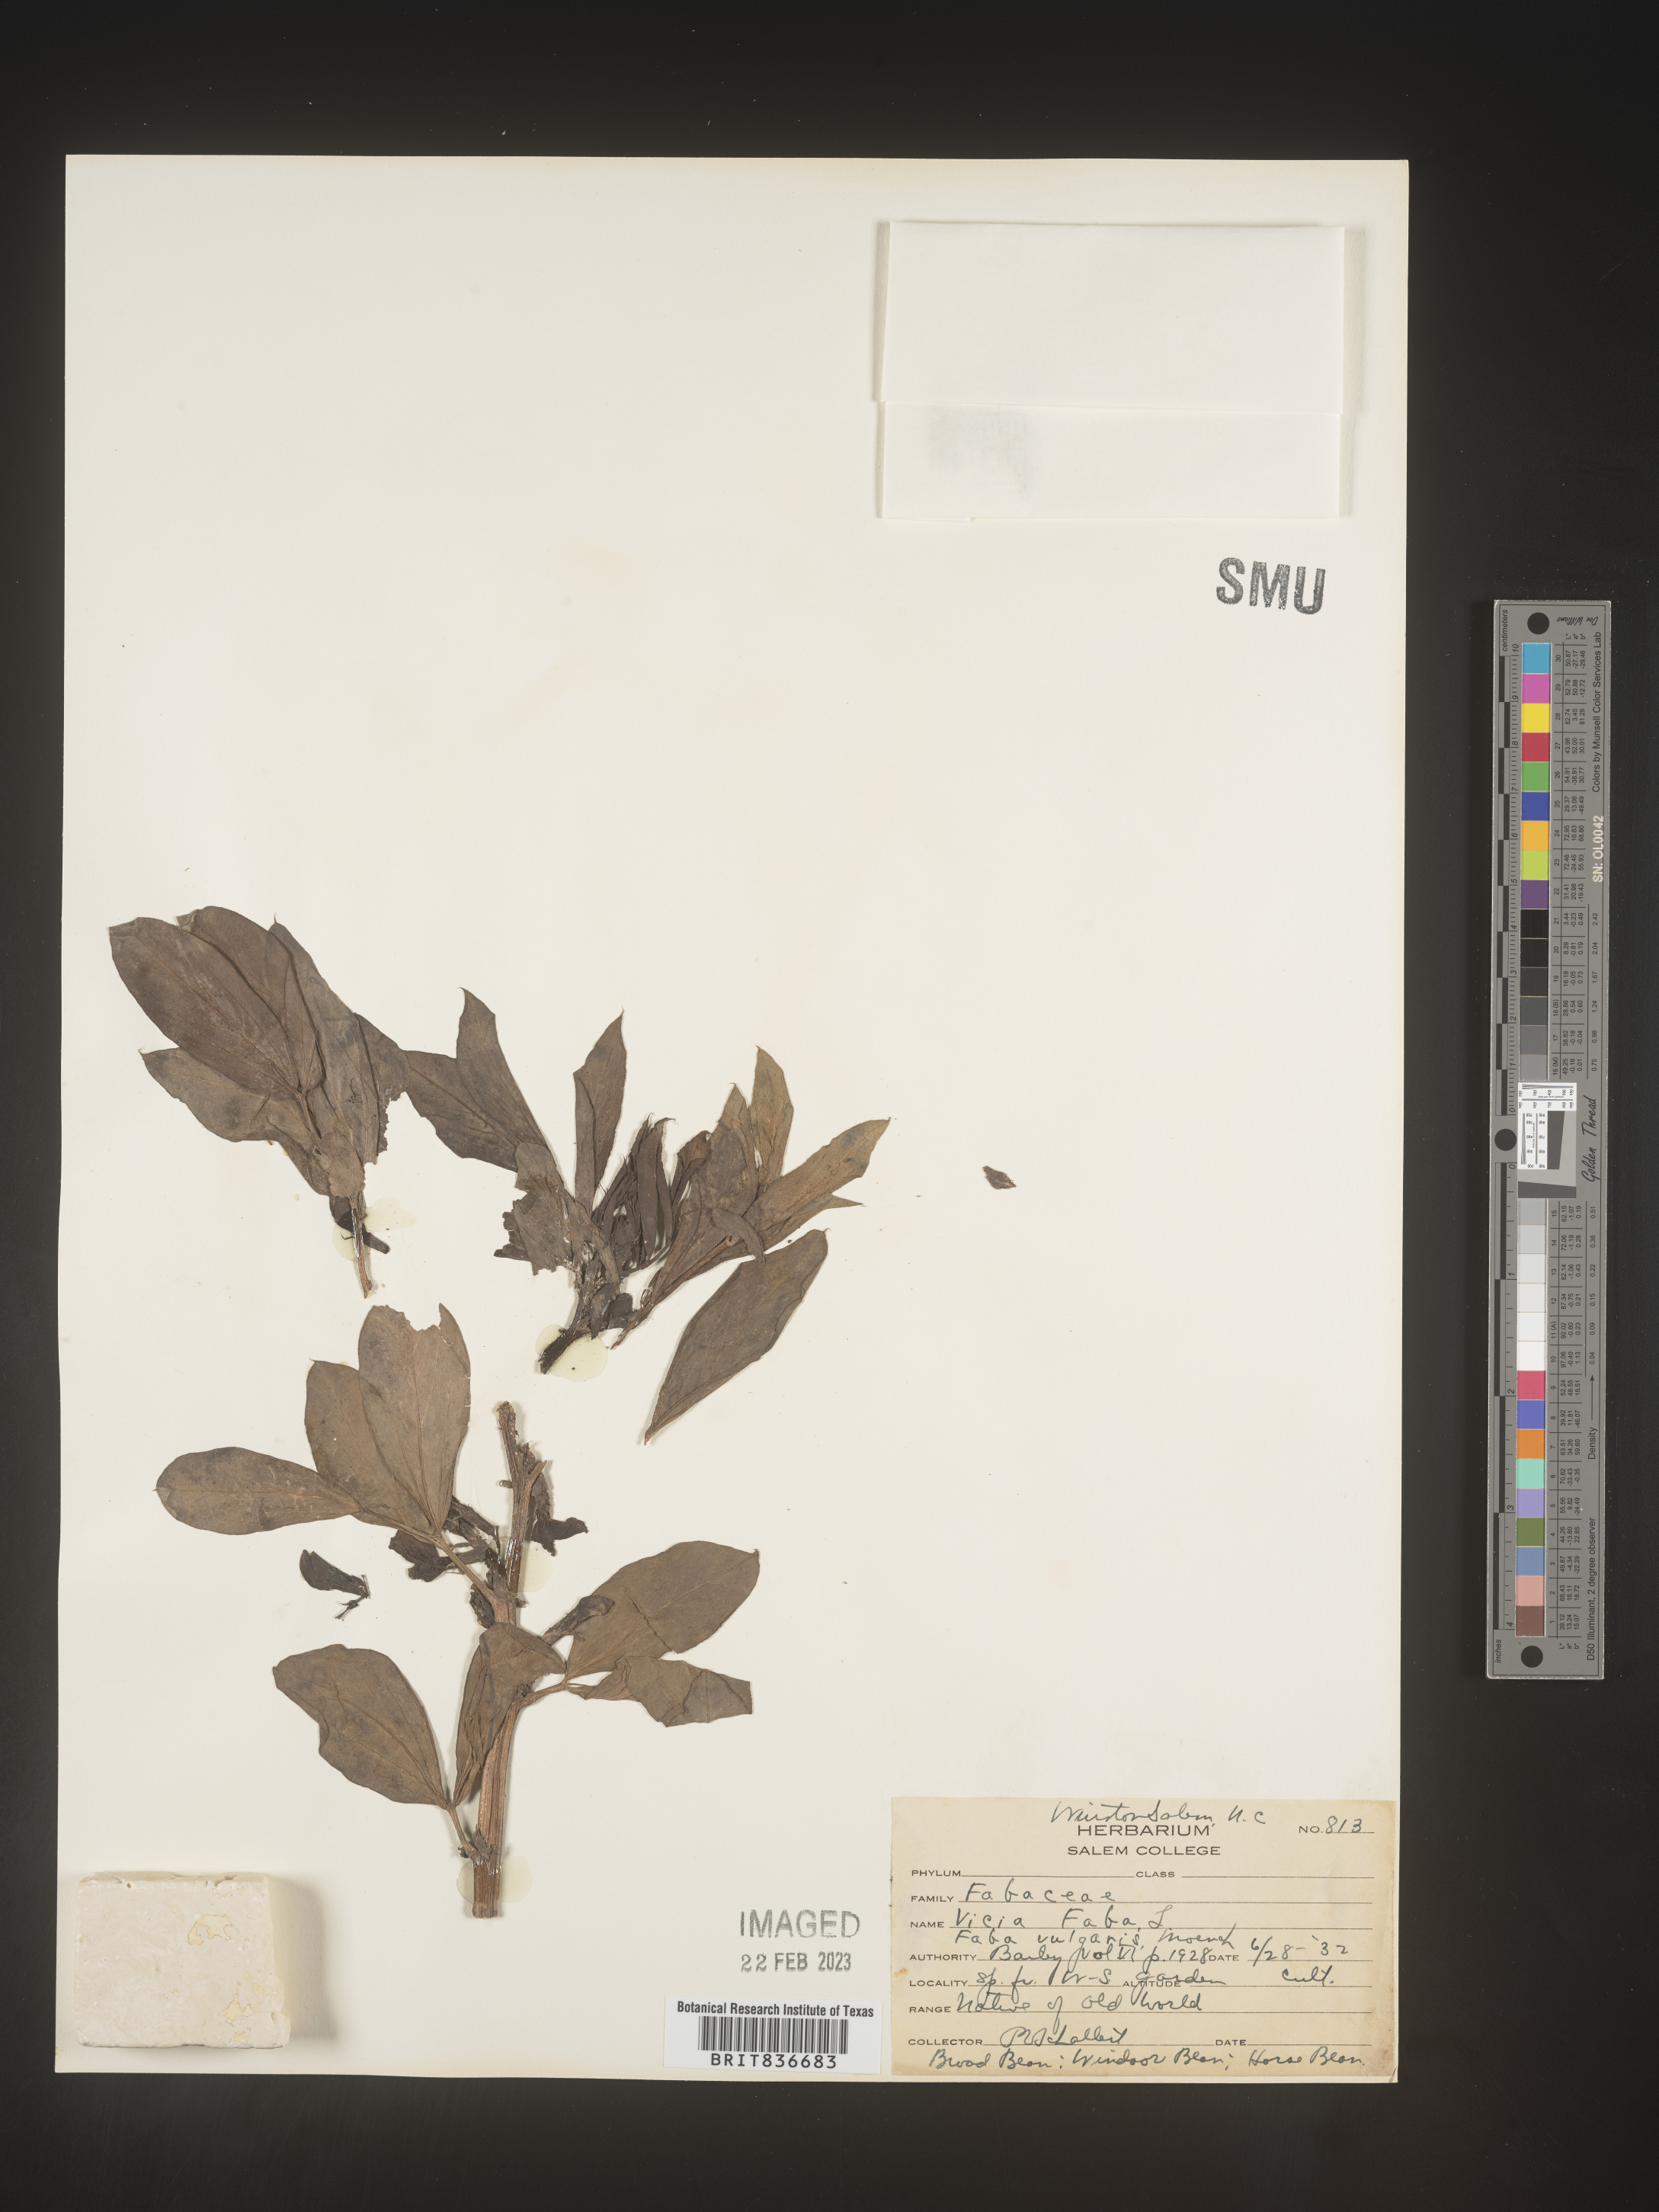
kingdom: Plantae
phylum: Tracheophyta
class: Magnoliopsida
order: Fabales
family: Fabaceae
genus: Vicia
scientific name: Vicia
